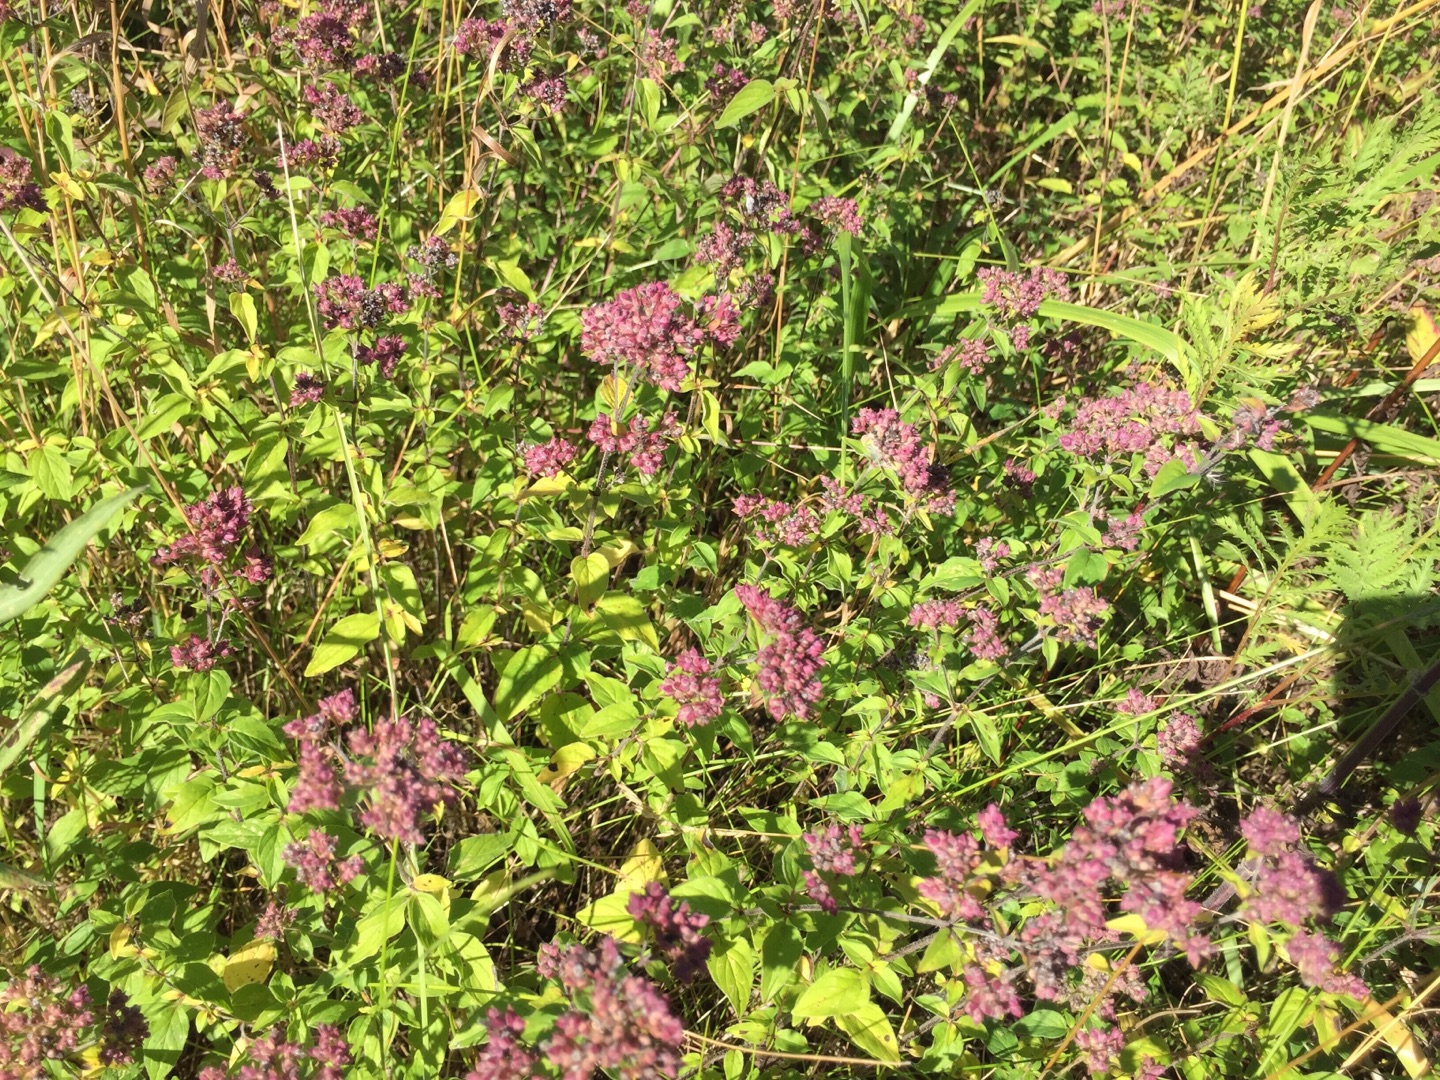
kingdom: Plantae
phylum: Tracheophyta
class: Magnoliopsida
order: Lamiales
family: Lamiaceae
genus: Origanum
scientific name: Origanum vulgare
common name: Merian
